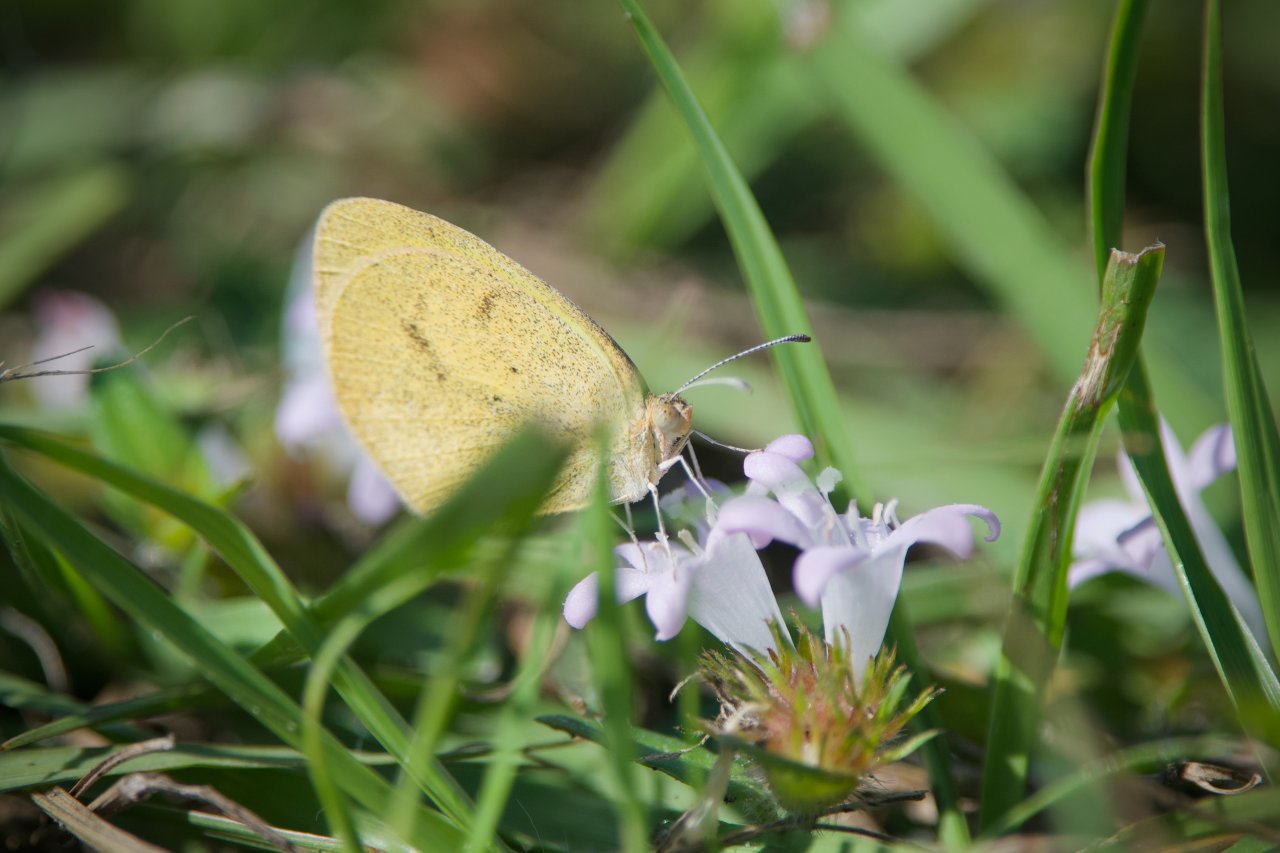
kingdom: Animalia
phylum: Arthropoda
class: Insecta
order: Lepidoptera
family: Pieridae
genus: Eurema
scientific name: Eurema daira
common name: Barred Yellow
